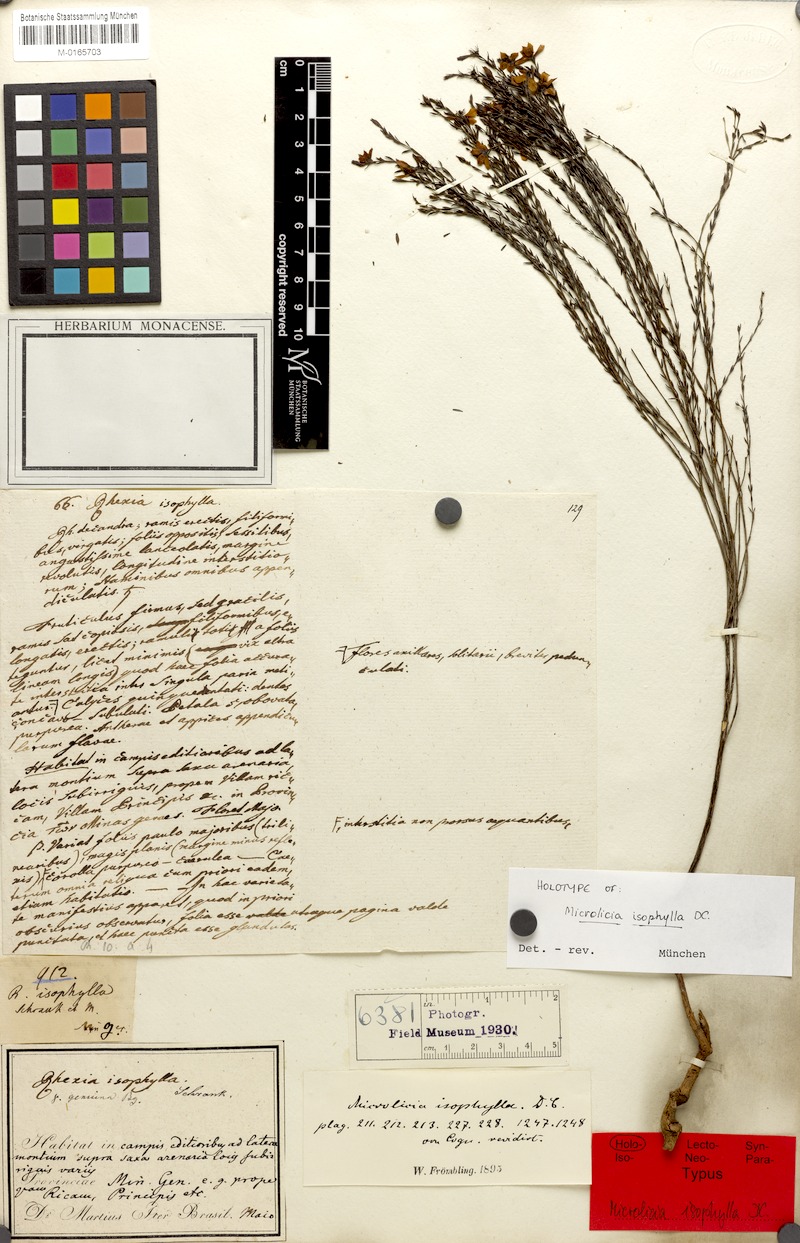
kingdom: Plantae
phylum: Tracheophyta
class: Magnoliopsida
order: Myrtales
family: Melastomataceae
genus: Microlicia
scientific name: Microlicia isophylla
